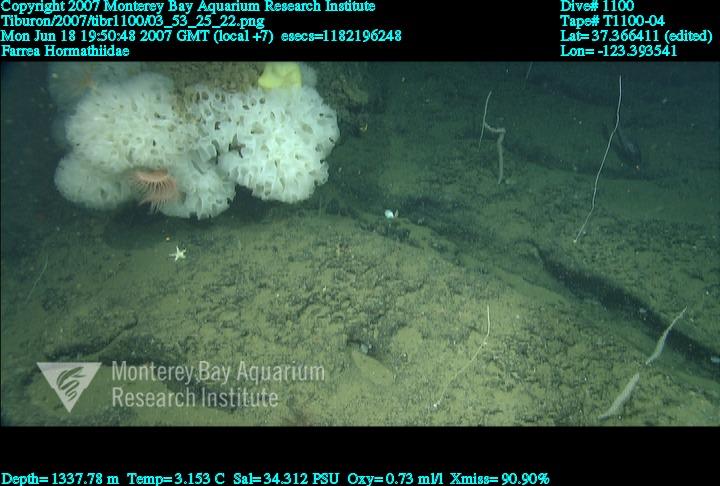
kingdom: Animalia
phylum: Porifera
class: Hexactinellida
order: Sceptrulophora
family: Farreidae
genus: Farrea
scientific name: Farrea
